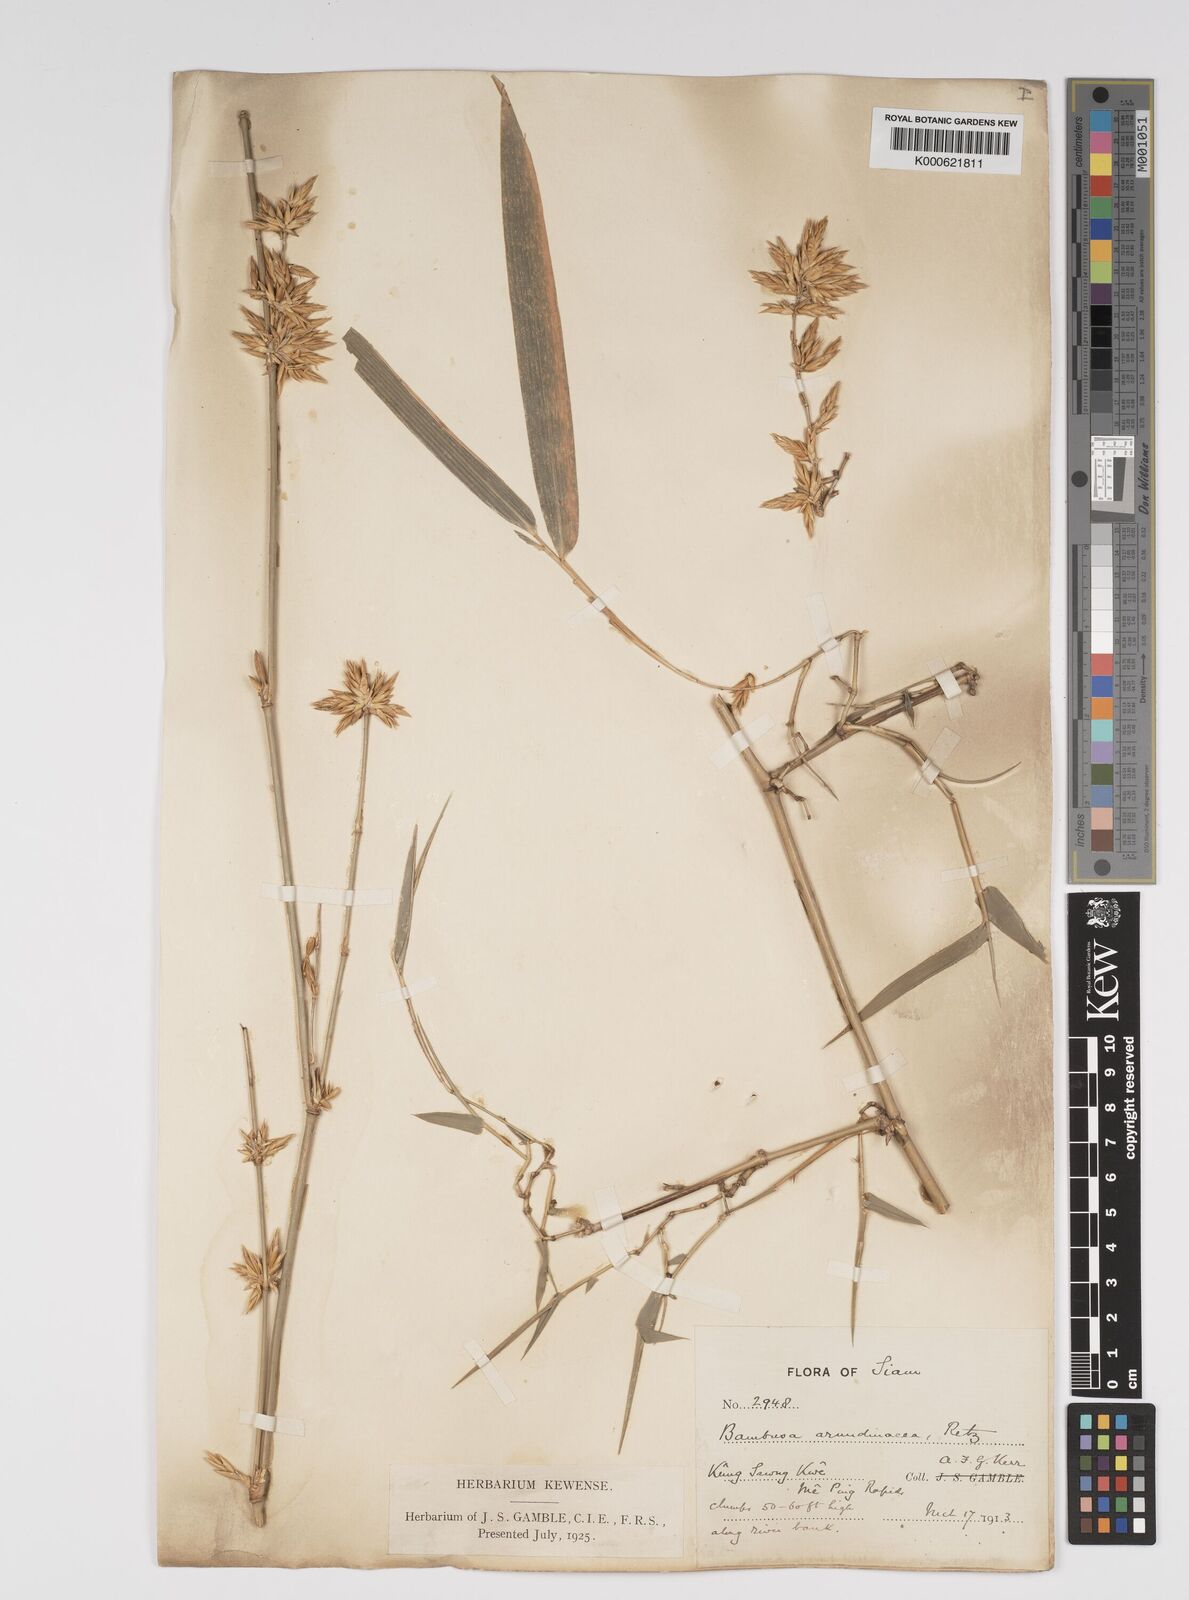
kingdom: Plantae
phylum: Tracheophyta
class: Liliopsida
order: Poales
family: Poaceae
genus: Bambusa
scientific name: Bambusa bambos
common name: Indian thorny bamboo
